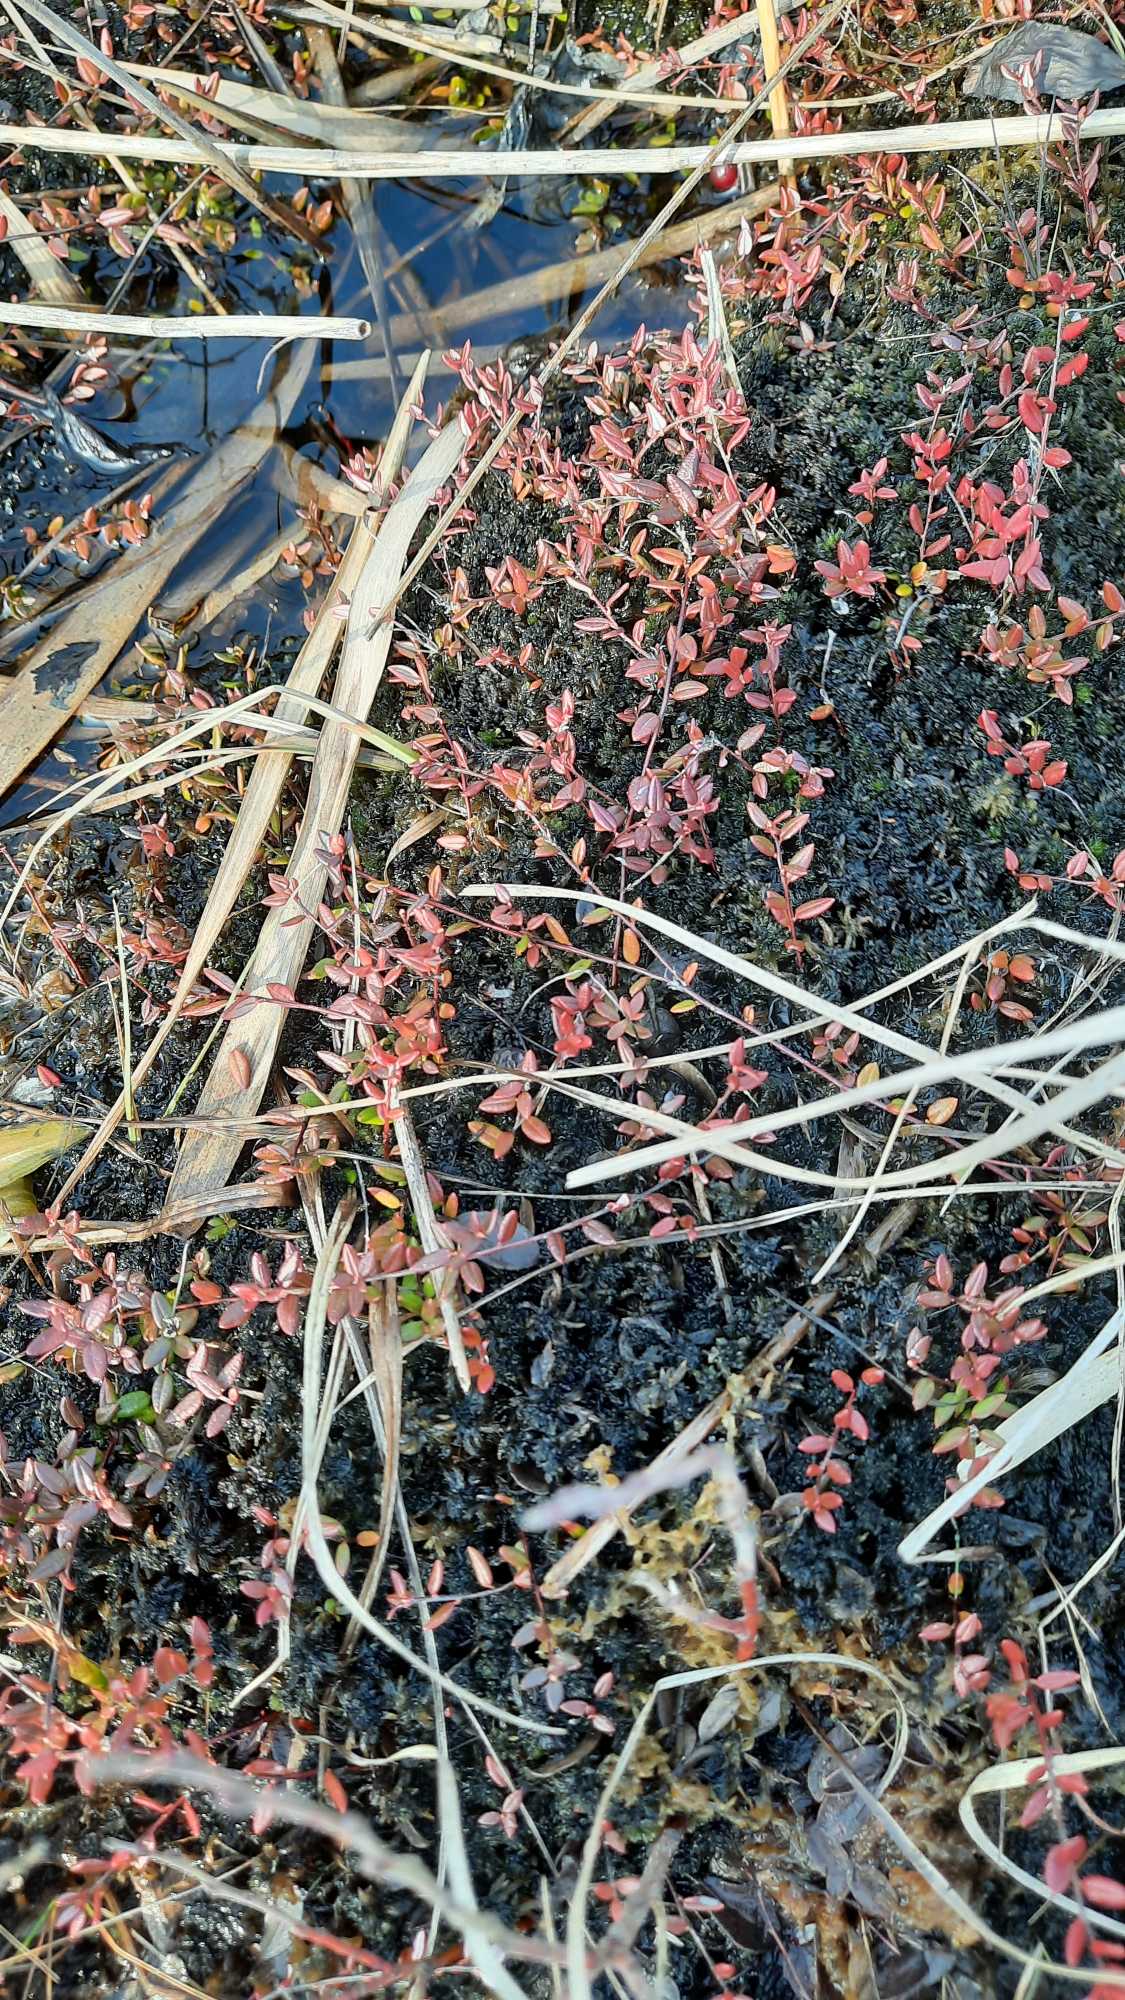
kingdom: Plantae
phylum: Tracheophyta
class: Magnoliopsida
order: Ericales
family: Ericaceae
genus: Vaccinium
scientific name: Vaccinium oxycoccos
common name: Tranebær
